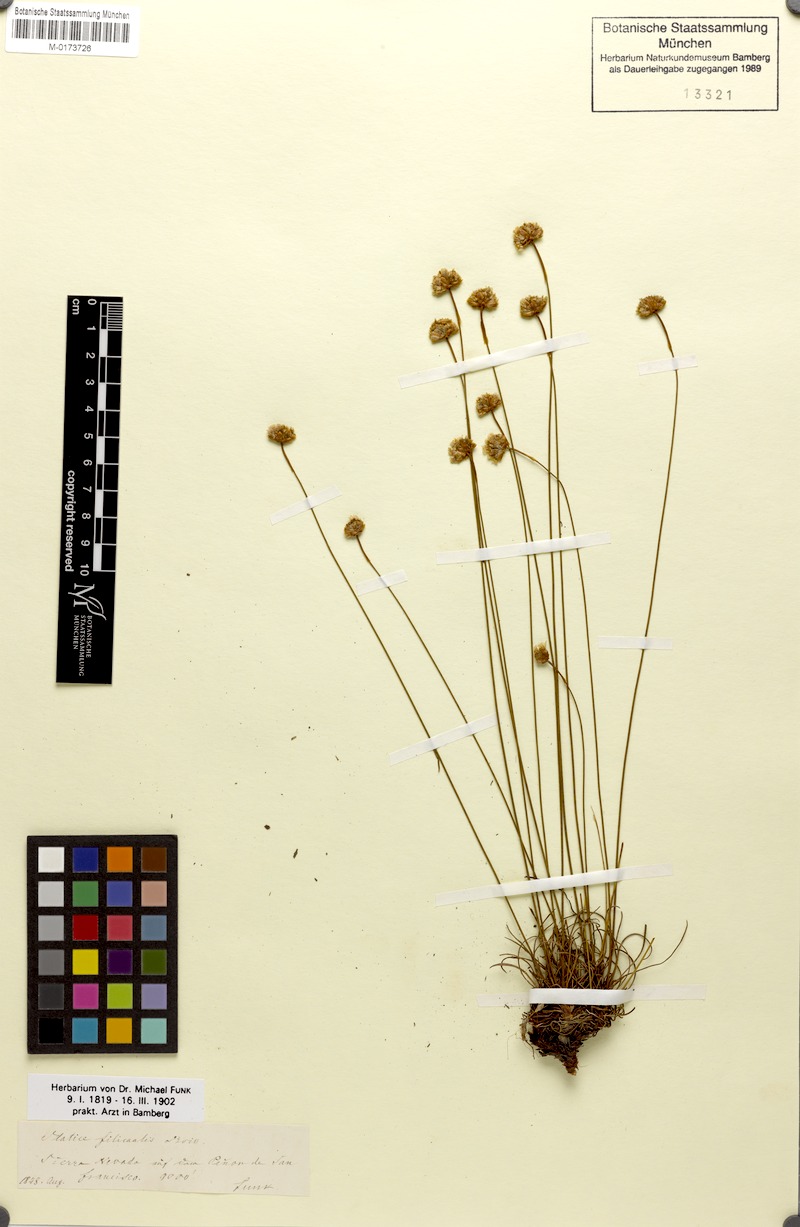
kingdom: Plantae
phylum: Tracheophyta
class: Magnoliopsida
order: Caryophyllales
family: Plumbaginaceae
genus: Armeria
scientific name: Armeria filicaulis
